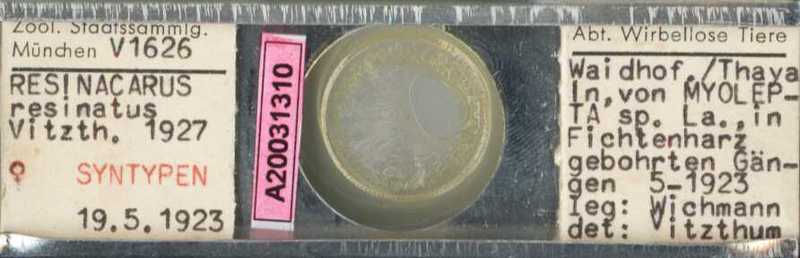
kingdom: Animalia
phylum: Arthropoda
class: Arachnida
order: Trombidiformes
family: Resinacaridae
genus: Resinacarus
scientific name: Resinacarus resinatus
